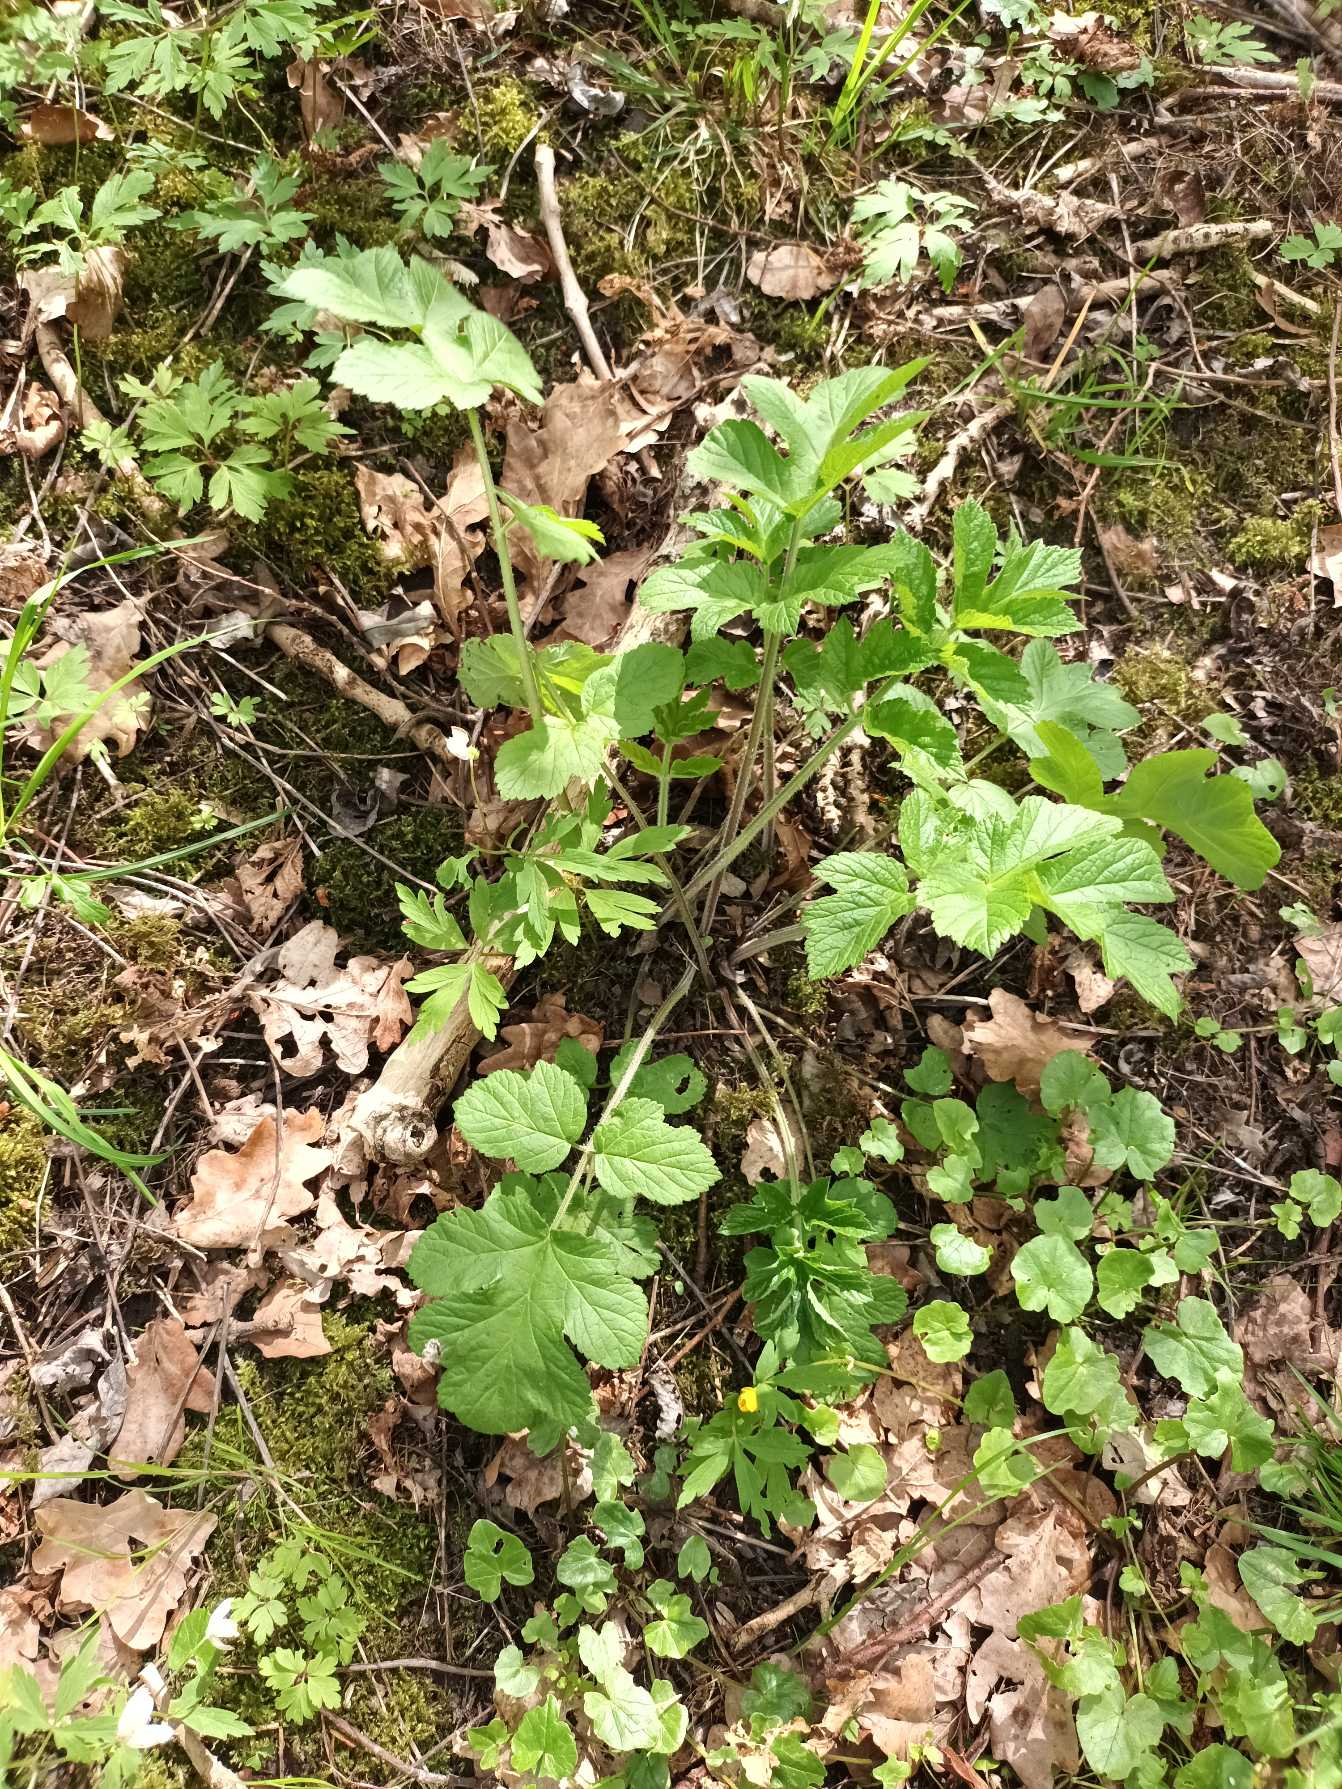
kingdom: Plantae
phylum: Tracheophyta
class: Magnoliopsida
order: Apiales
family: Apiaceae
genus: Heracleum
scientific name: Heracleum sphondylium
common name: Almindelig bjørneklo
